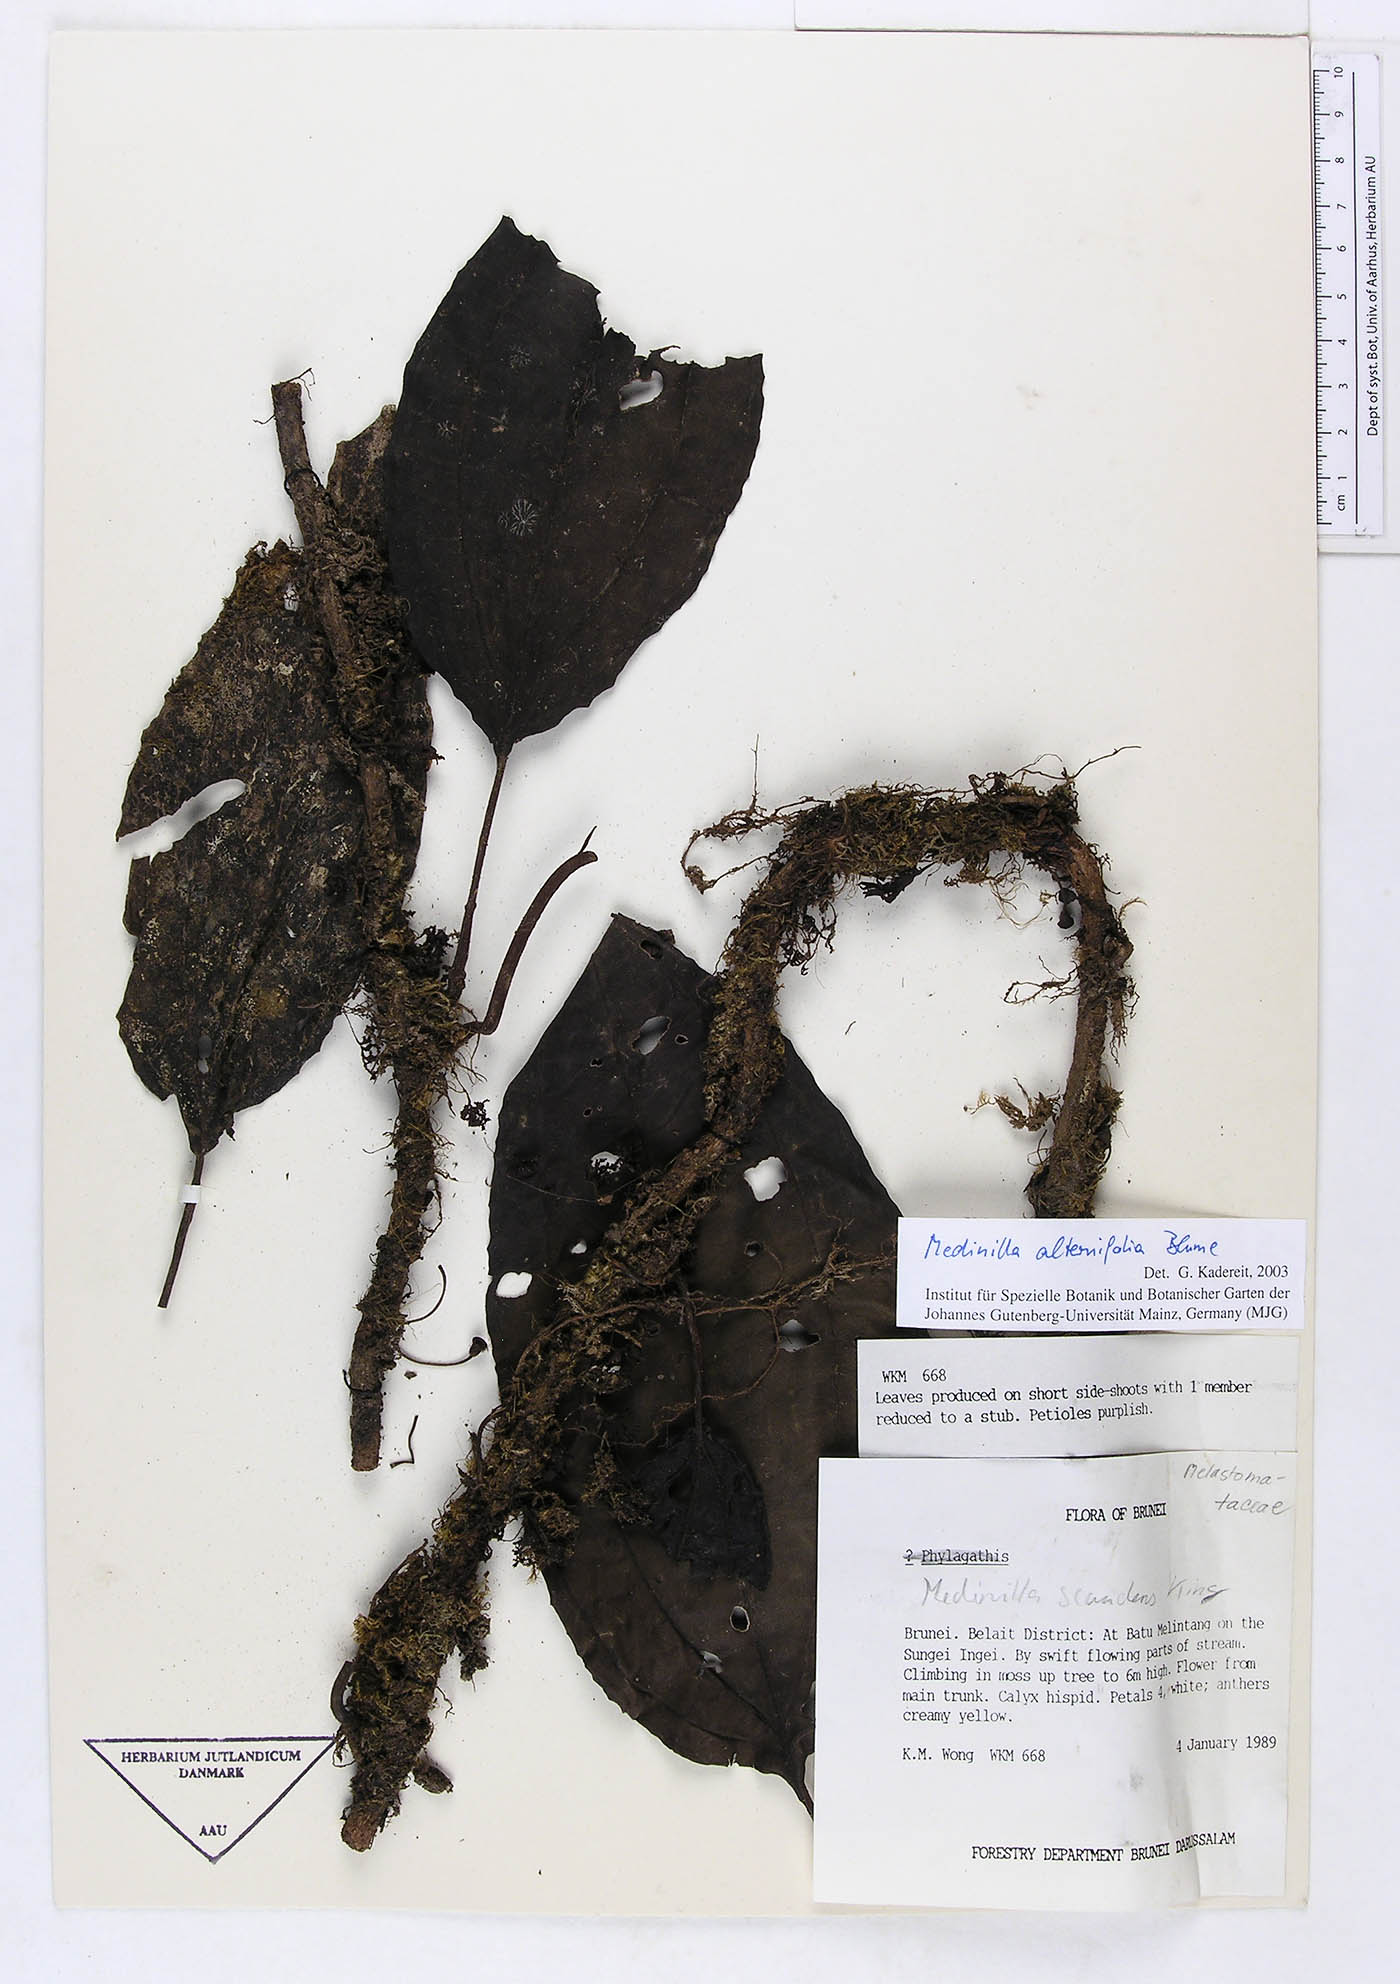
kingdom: Plantae
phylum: Tracheophyta
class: Magnoliopsida
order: Myrtales
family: Melastomataceae
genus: Heteroblemma
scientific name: Heteroblemma alternifolium
